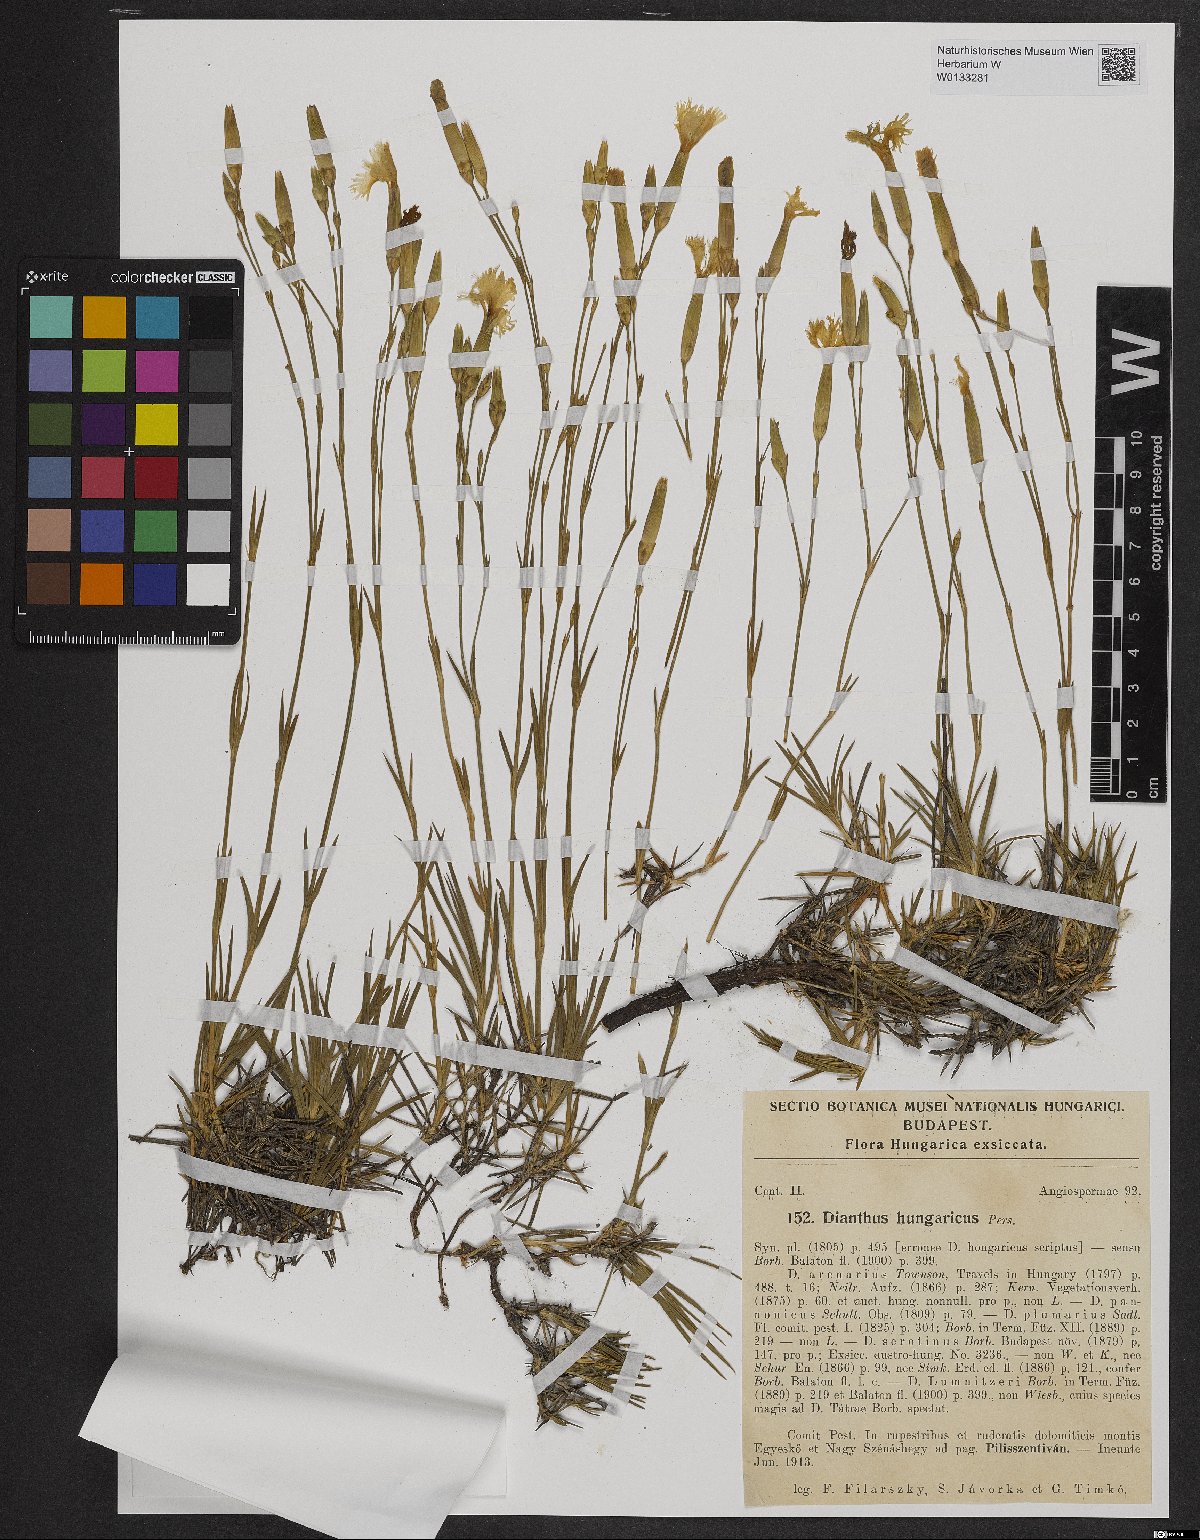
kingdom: Plantae
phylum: Tracheophyta
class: Magnoliopsida
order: Caryophyllales
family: Caryophyllaceae
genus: Dianthus
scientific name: Dianthus plumarius
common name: Pink
